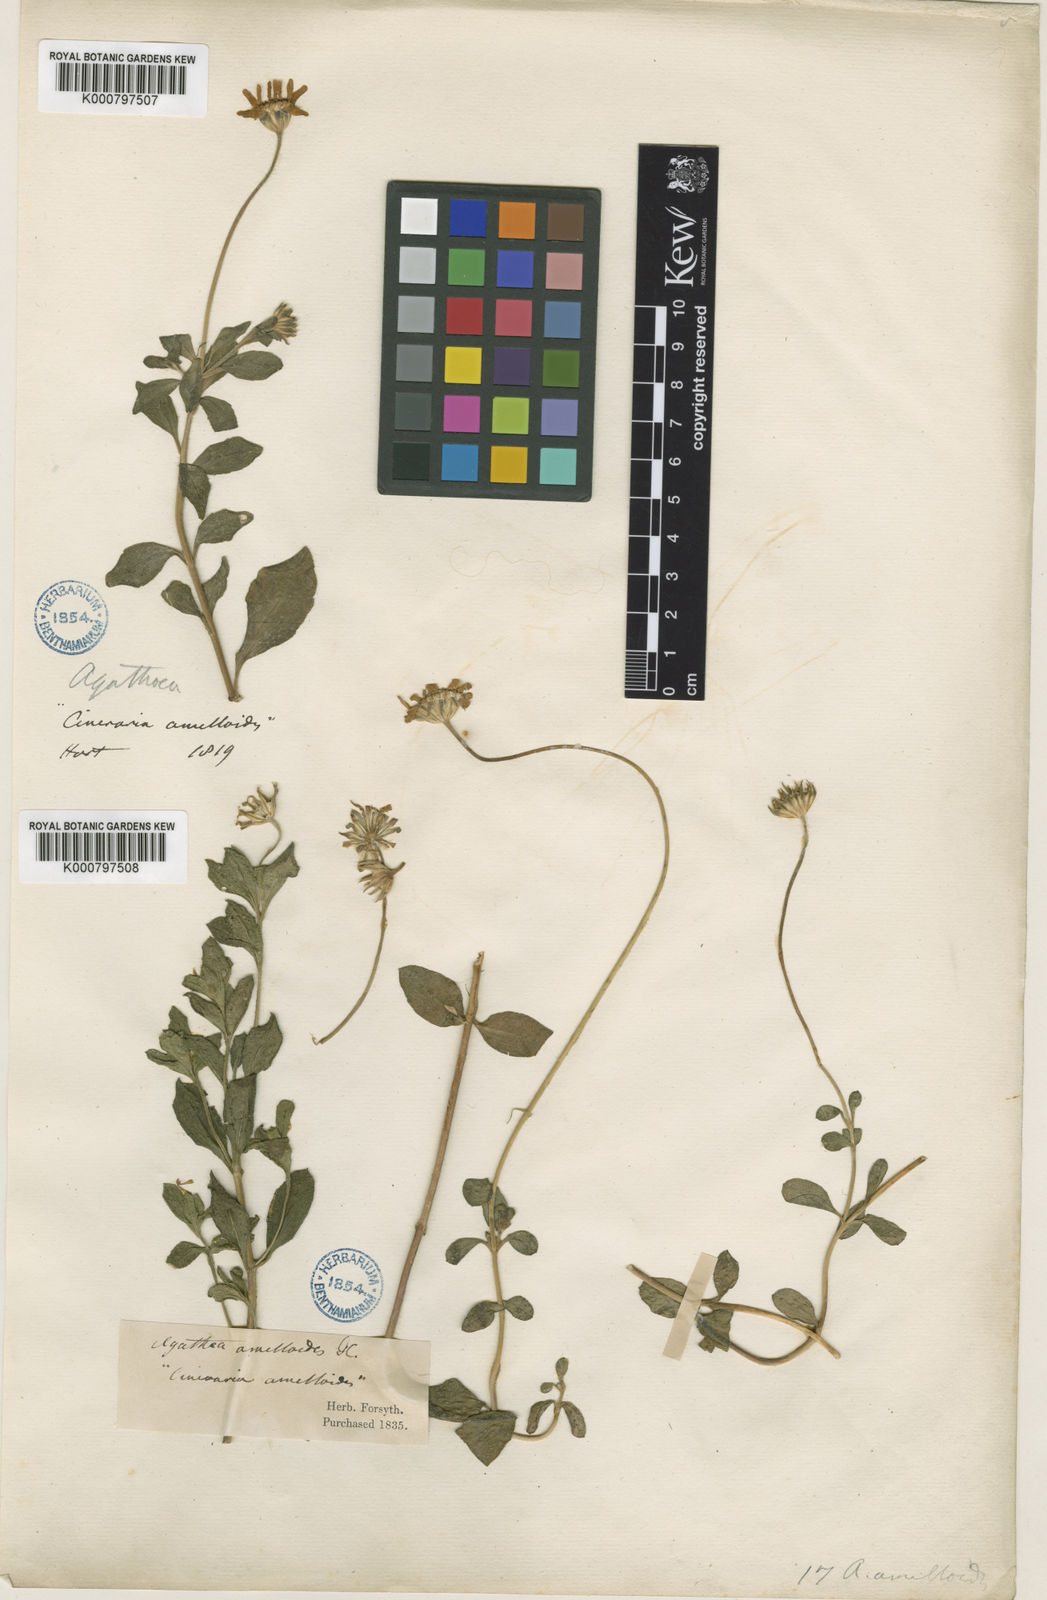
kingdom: Plantae
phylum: Tracheophyta
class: Magnoliopsida
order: Asterales
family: Asteraceae
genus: Felicia
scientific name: Felicia amelloides
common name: Blue marguerite
